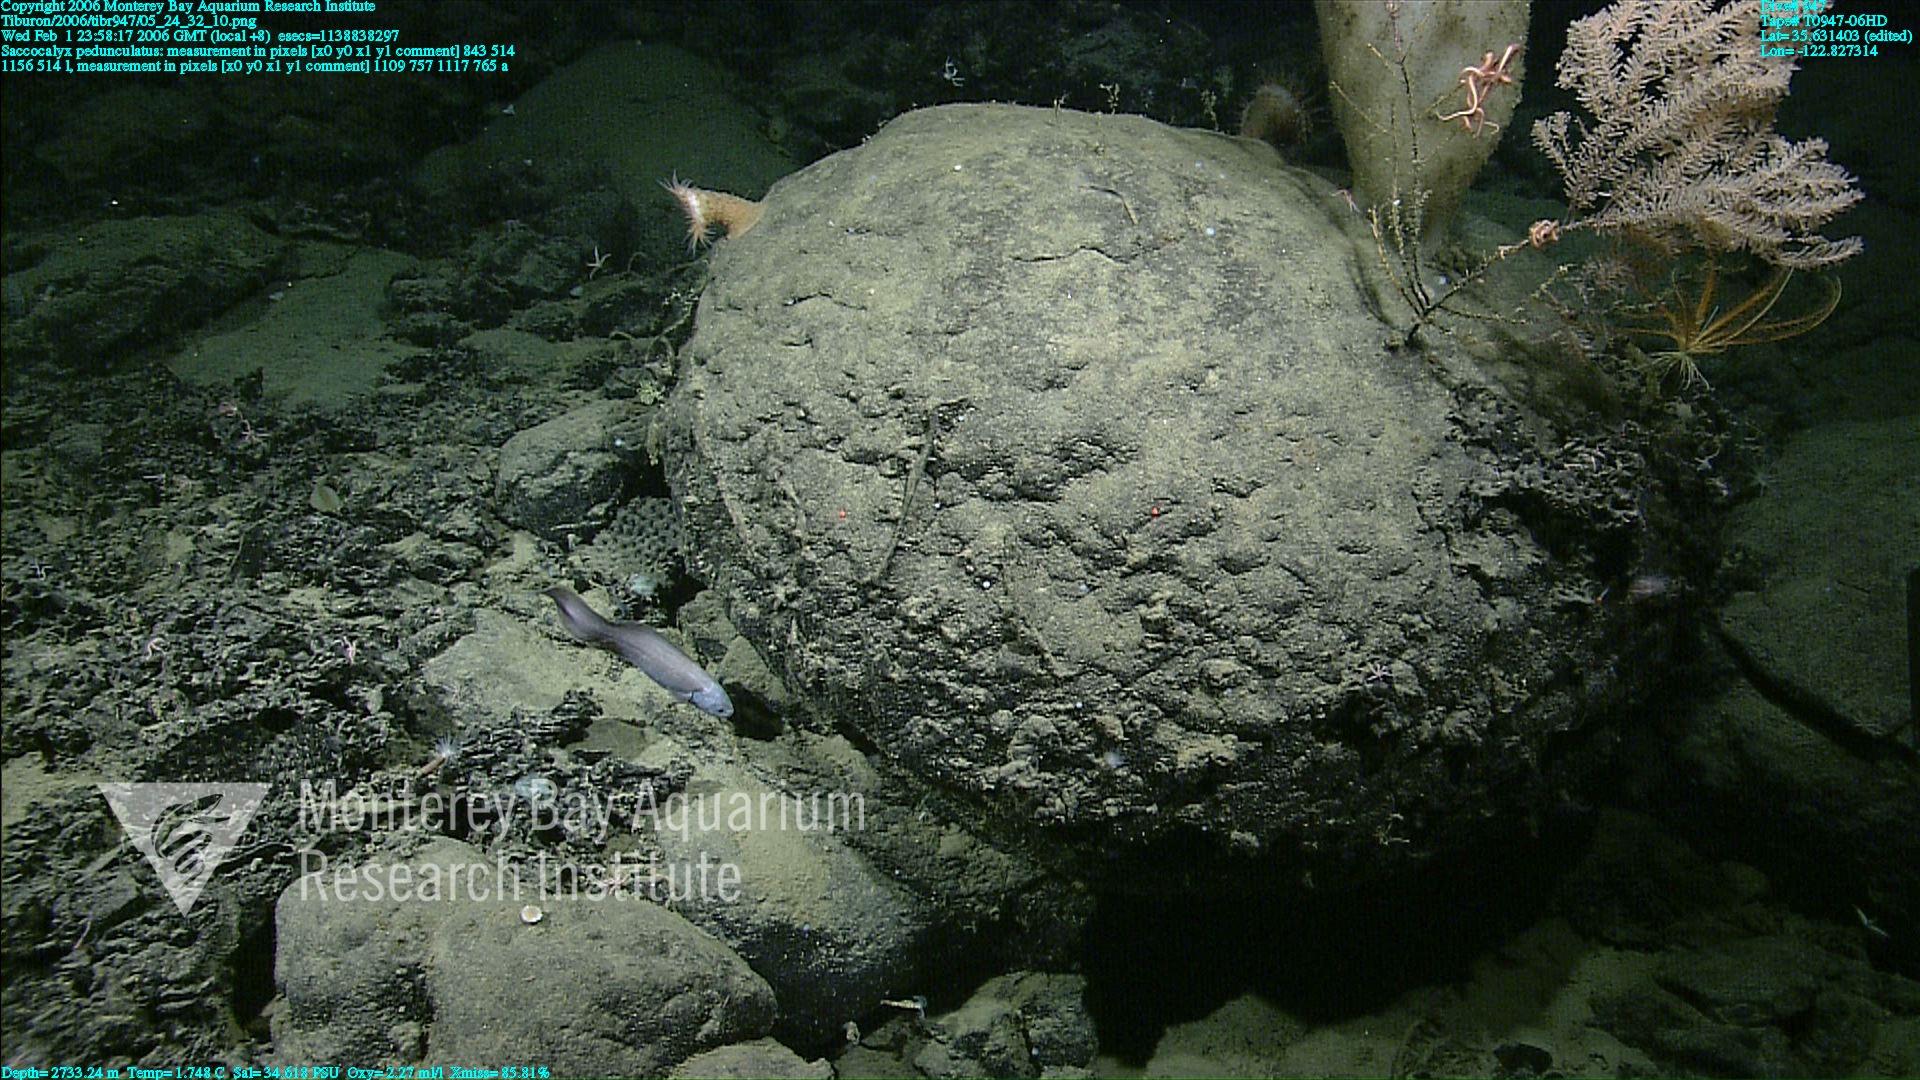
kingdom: Animalia
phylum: Porifera
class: Hexactinellida
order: Lyssacinosida
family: Euplectellidae
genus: Saccocalyx
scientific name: Saccocalyx pedunculatus
